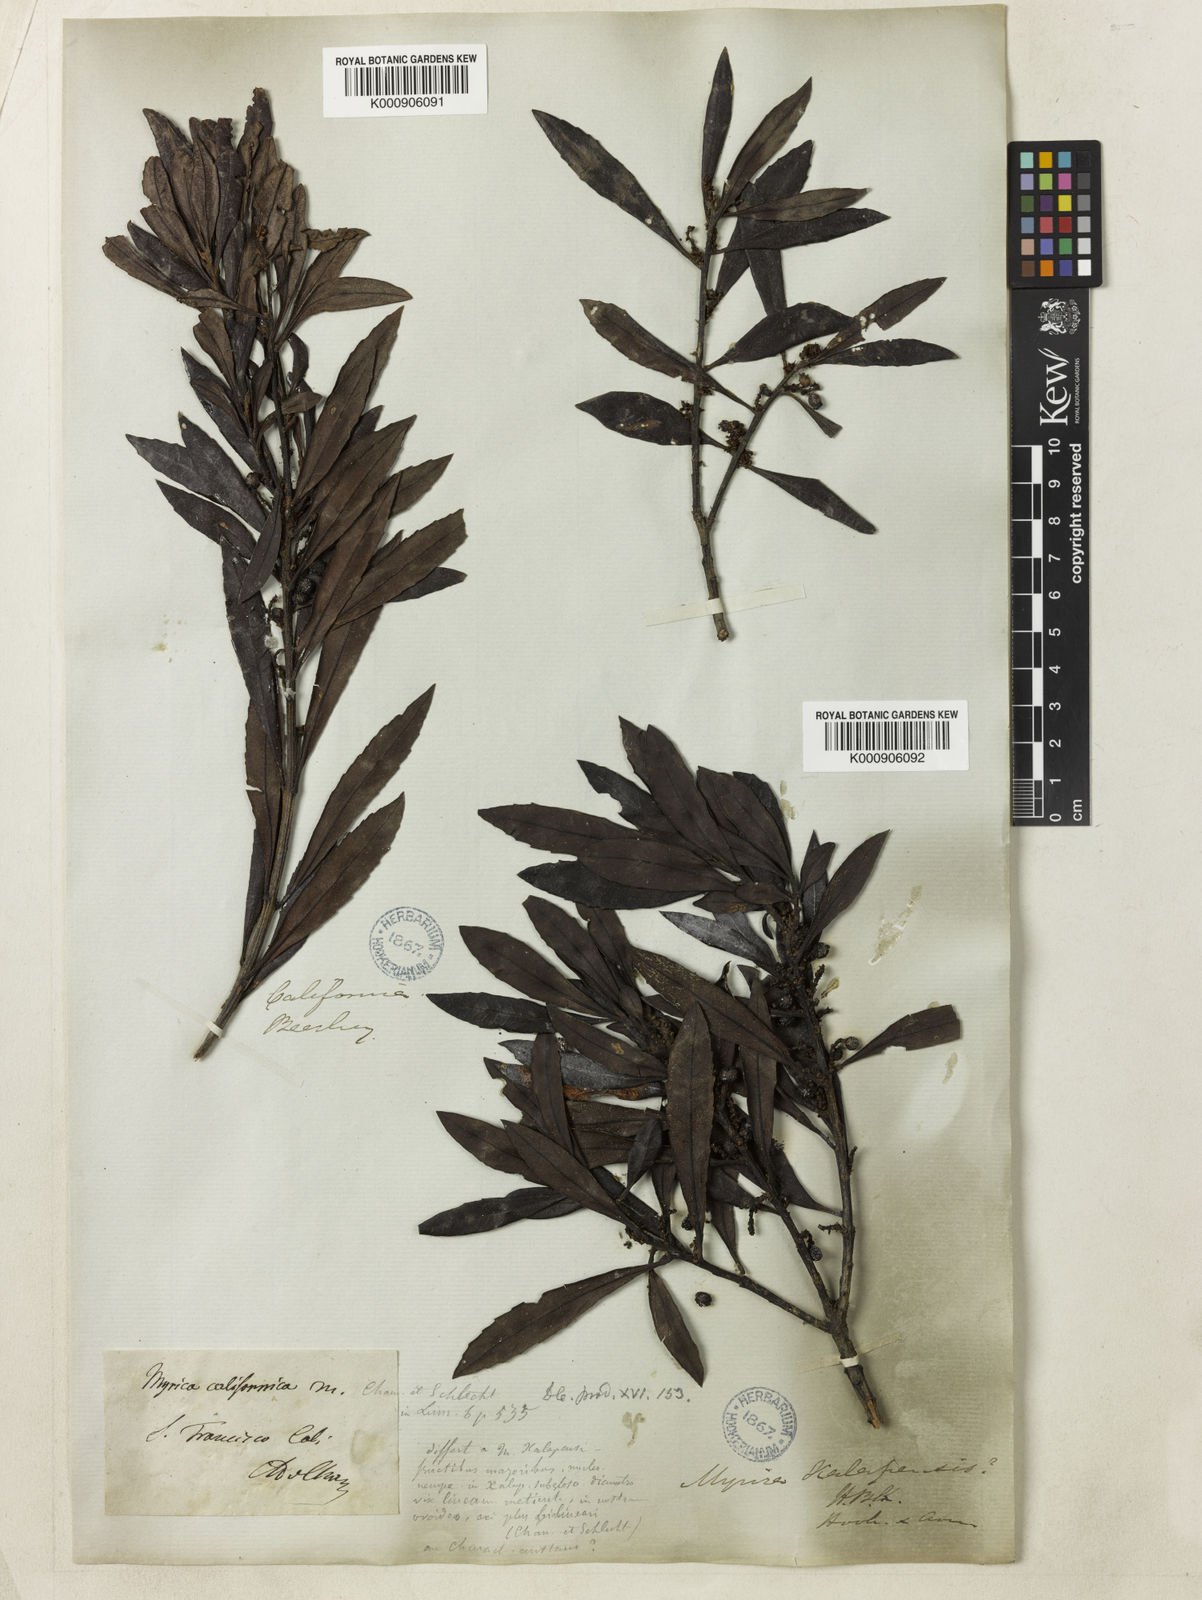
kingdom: Plantae
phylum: Tracheophyta
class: Magnoliopsida
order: Fagales
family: Myricaceae
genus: Morella
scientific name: Morella californica
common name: California wax-myrtle
